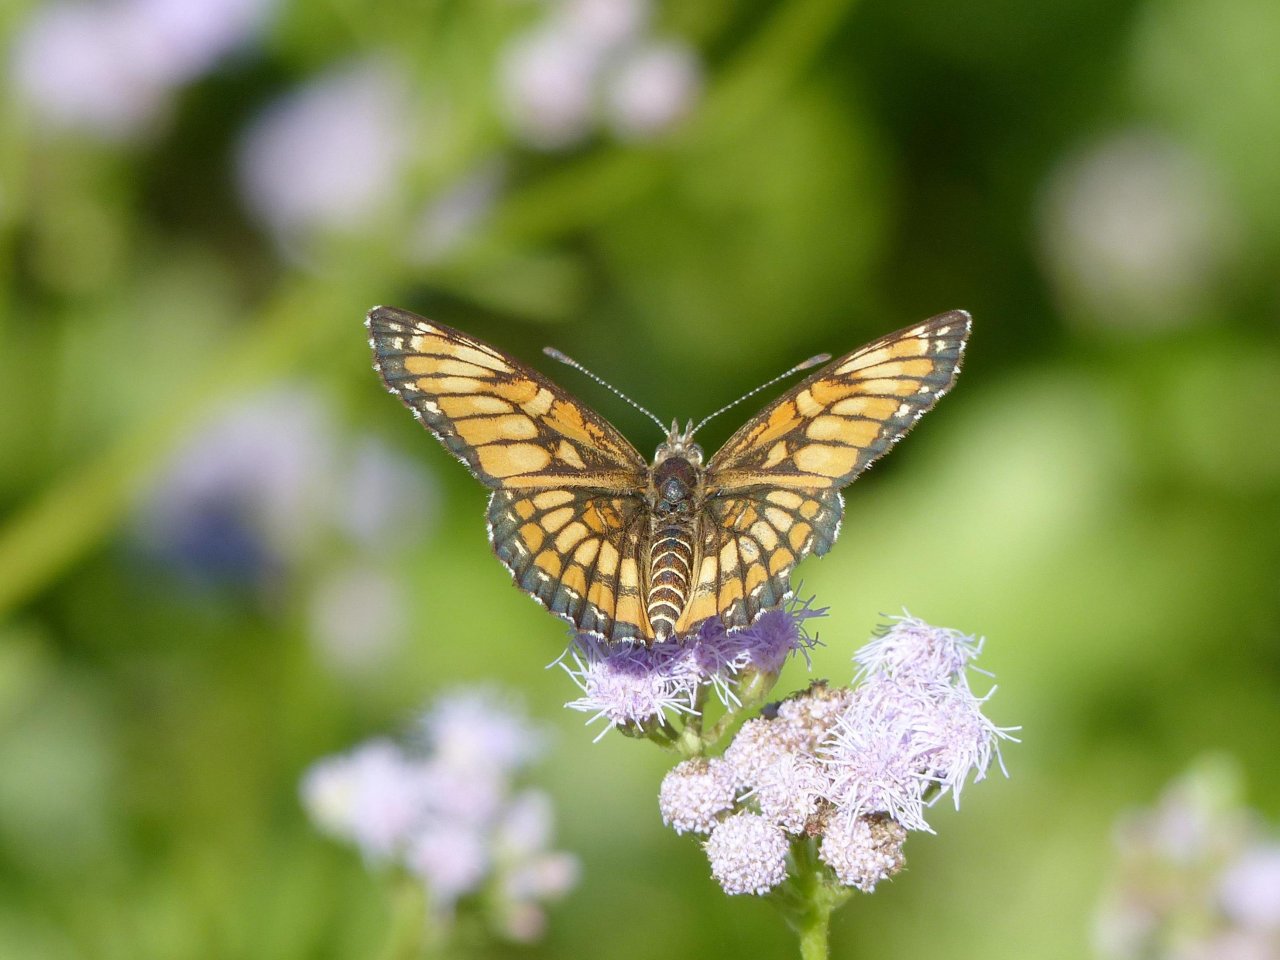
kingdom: Animalia
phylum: Arthropoda
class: Insecta
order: Lepidoptera
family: Nymphalidae
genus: Thessalia
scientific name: Thessalia theona
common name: Theona Checkerspot
